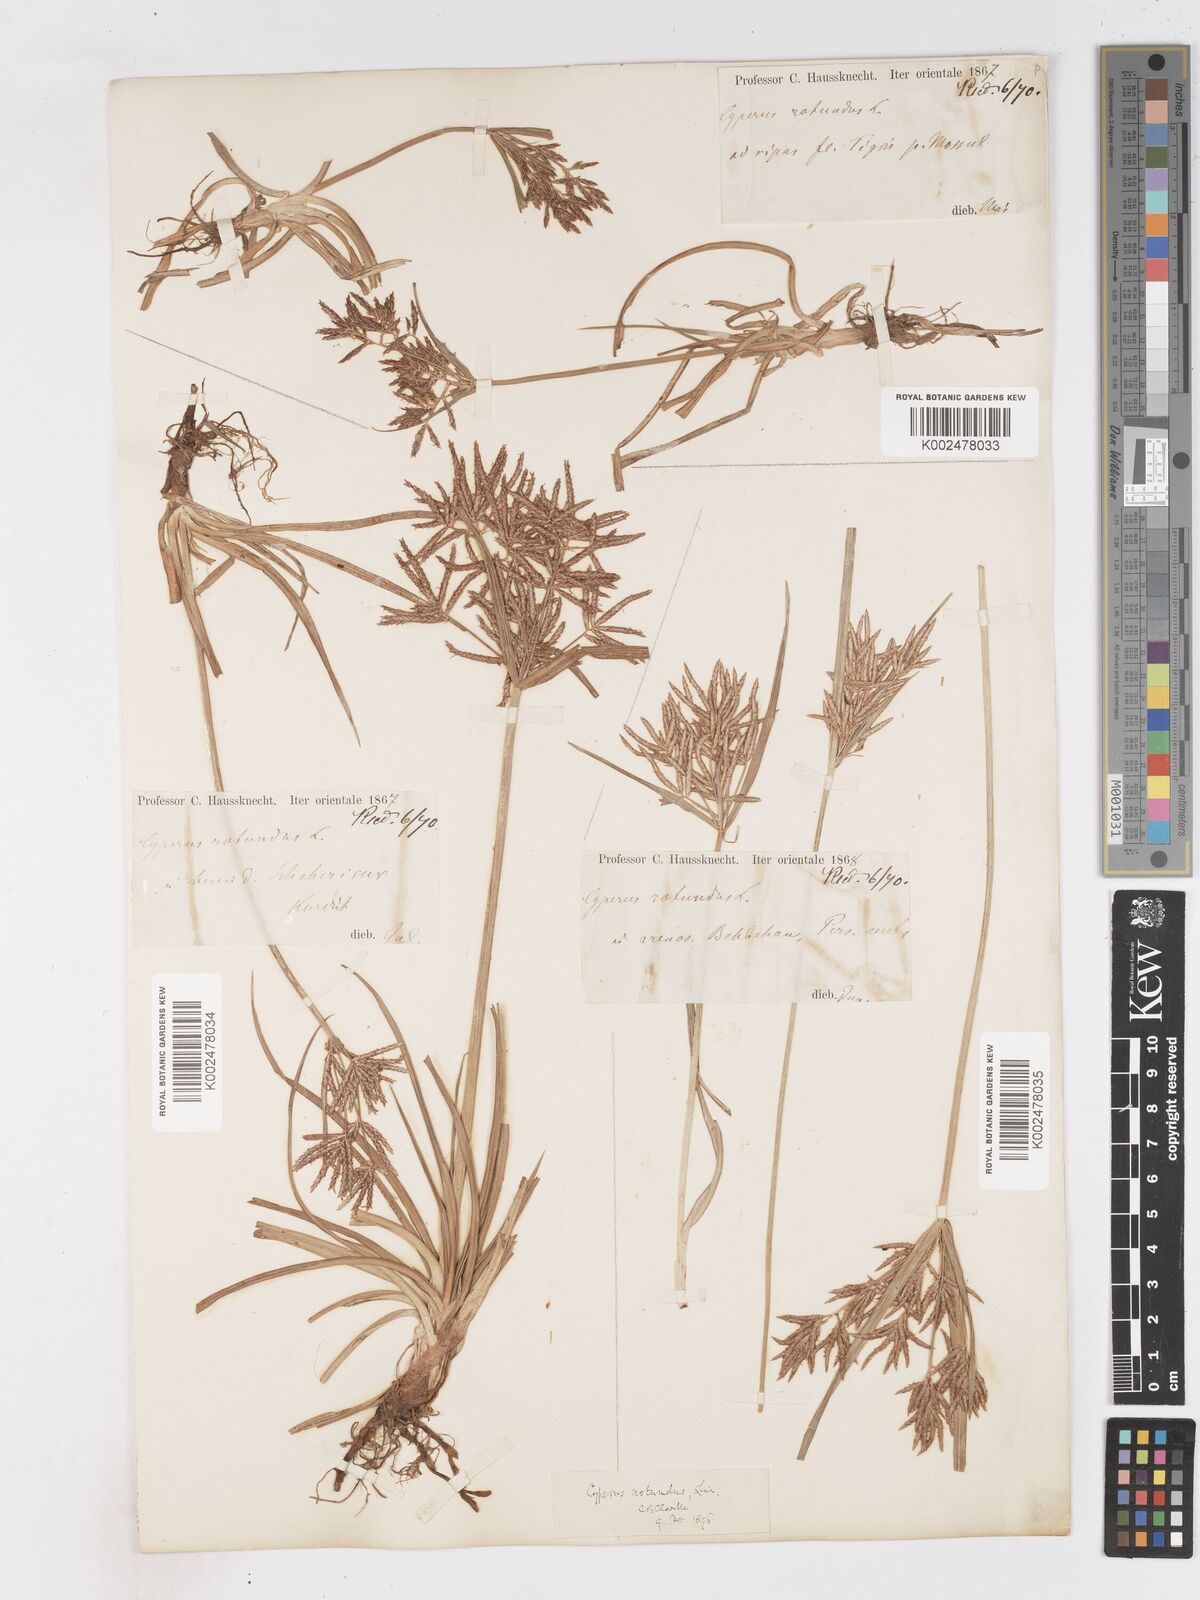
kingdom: Plantae
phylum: Tracheophyta
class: Liliopsida
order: Poales
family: Cyperaceae
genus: Cyperus
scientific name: Cyperus rotundus
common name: Nutgrass
